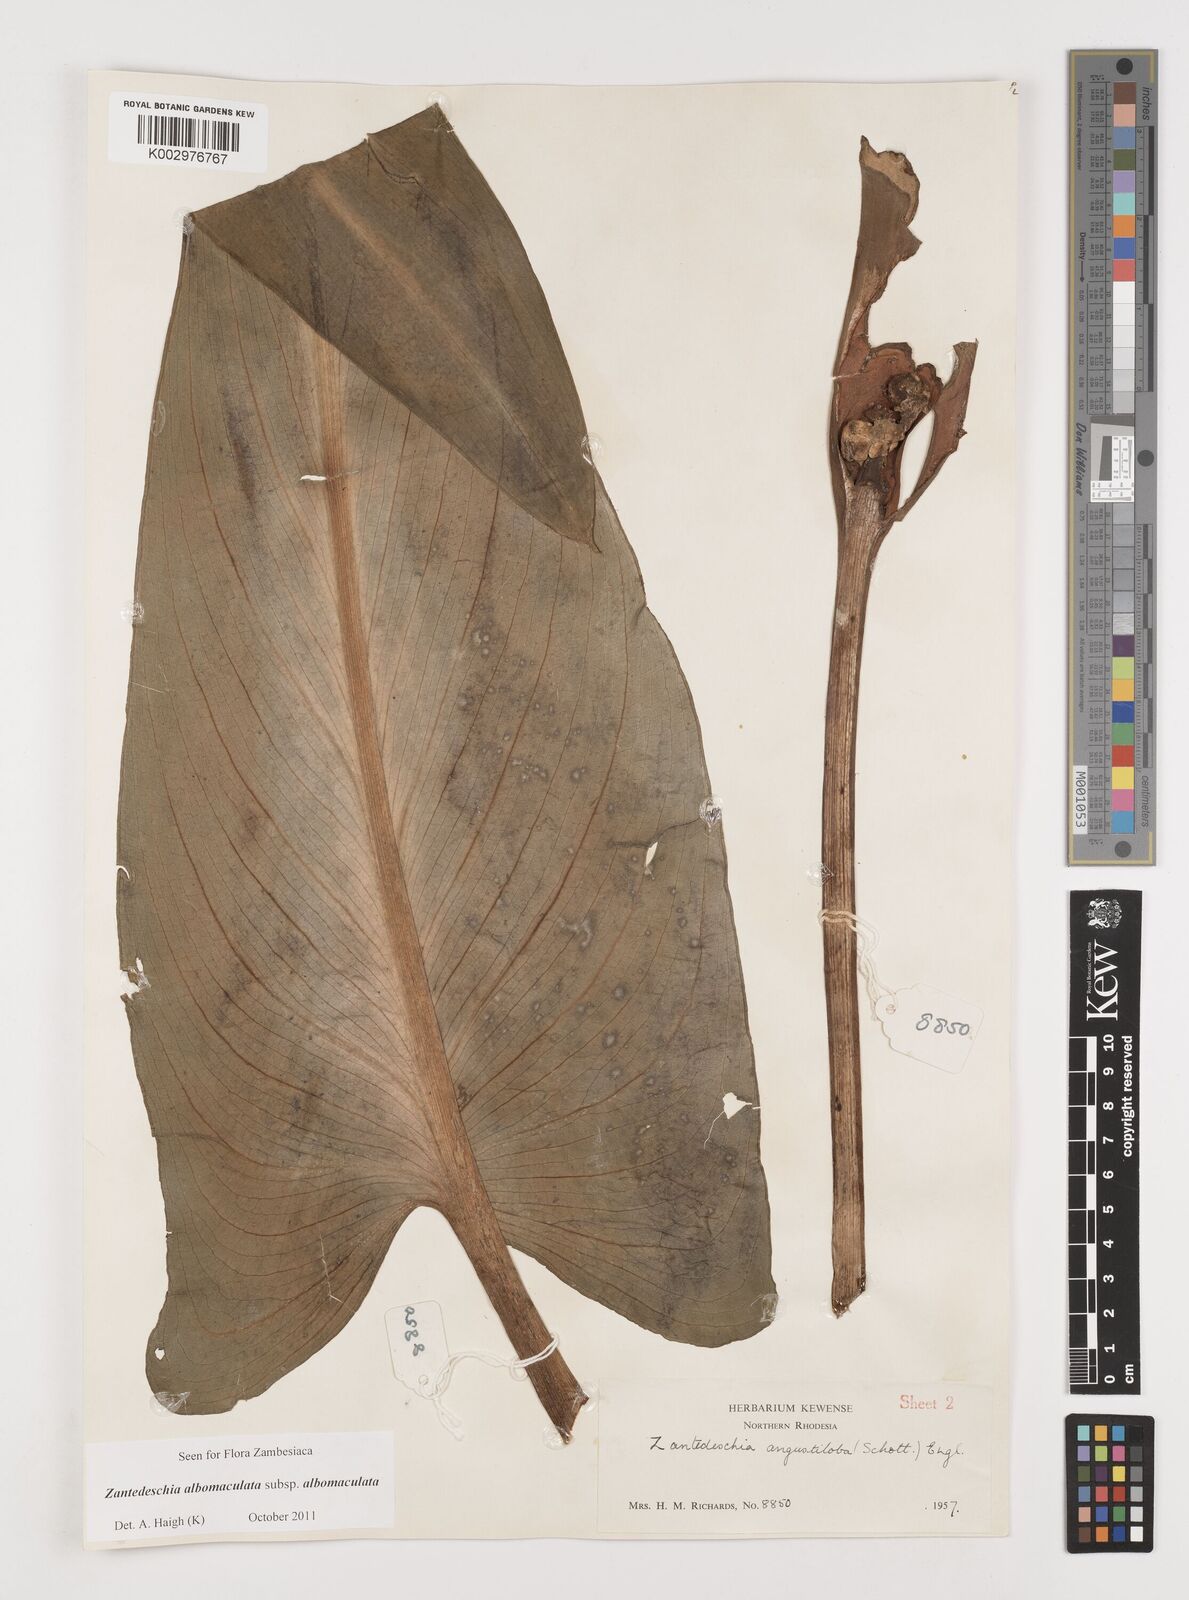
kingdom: Plantae
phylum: Tracheophyta
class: Liliopsida
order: Alismatales
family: Araceae
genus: Zantedeschia
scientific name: Zantedeschia albomaculata
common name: Spotted calla lily
